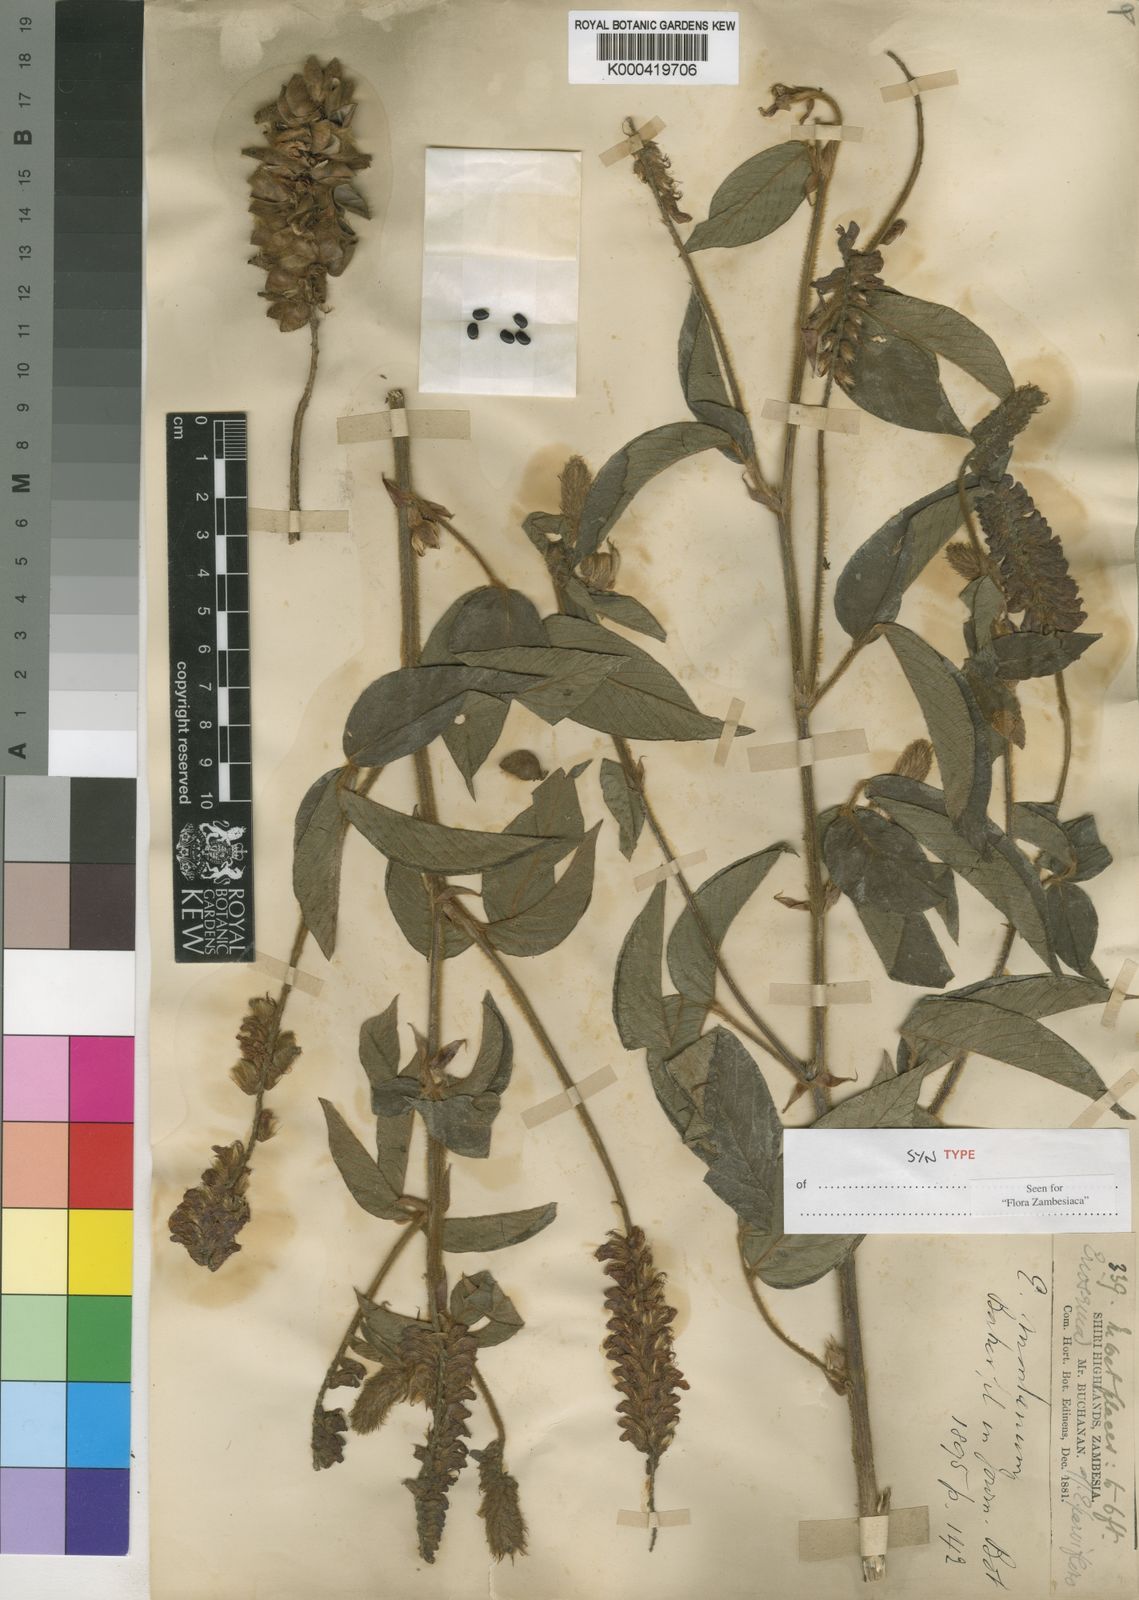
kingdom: Plantae
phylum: Tracheophyta
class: Magnoliopsida
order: Fabales
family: Fabaceae
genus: Eriosema
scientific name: Eriosema montanum
